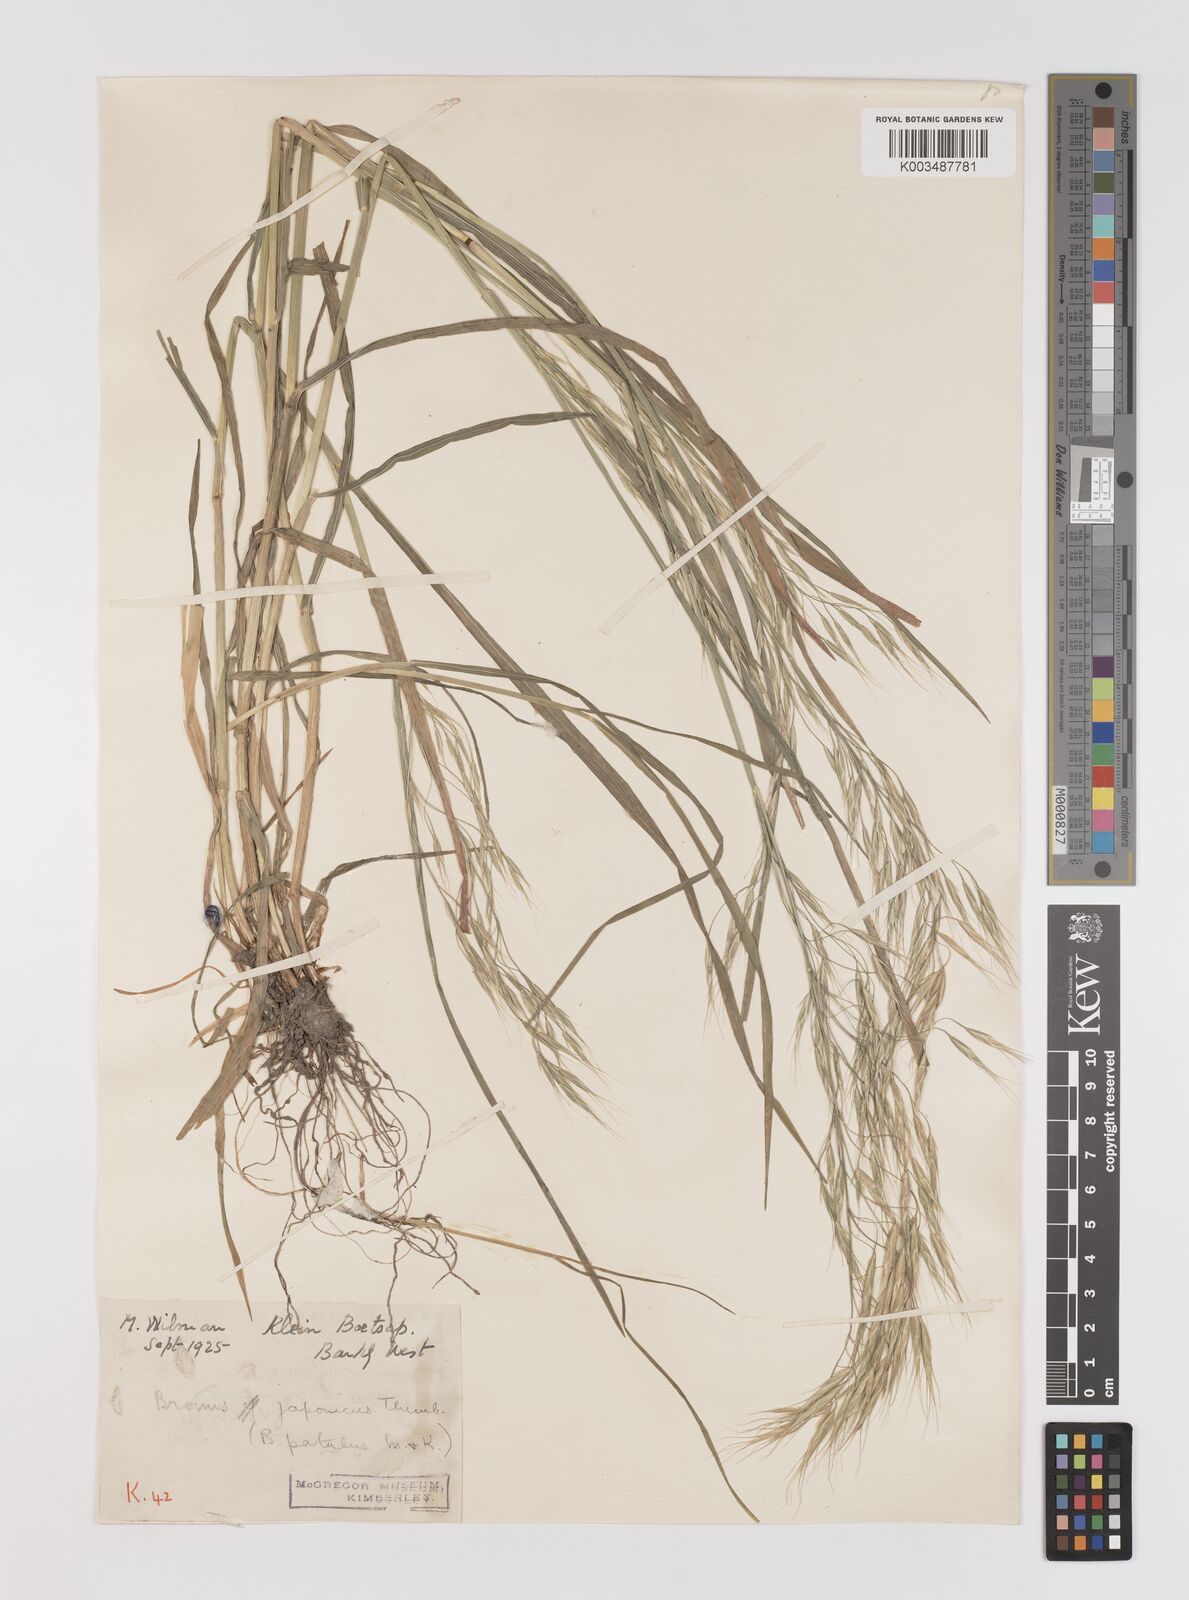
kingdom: Plantae
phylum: Tracheophyta
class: Liliopsida
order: Poales
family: Poaceae
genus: Bromus
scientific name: Bromus pectinatus
